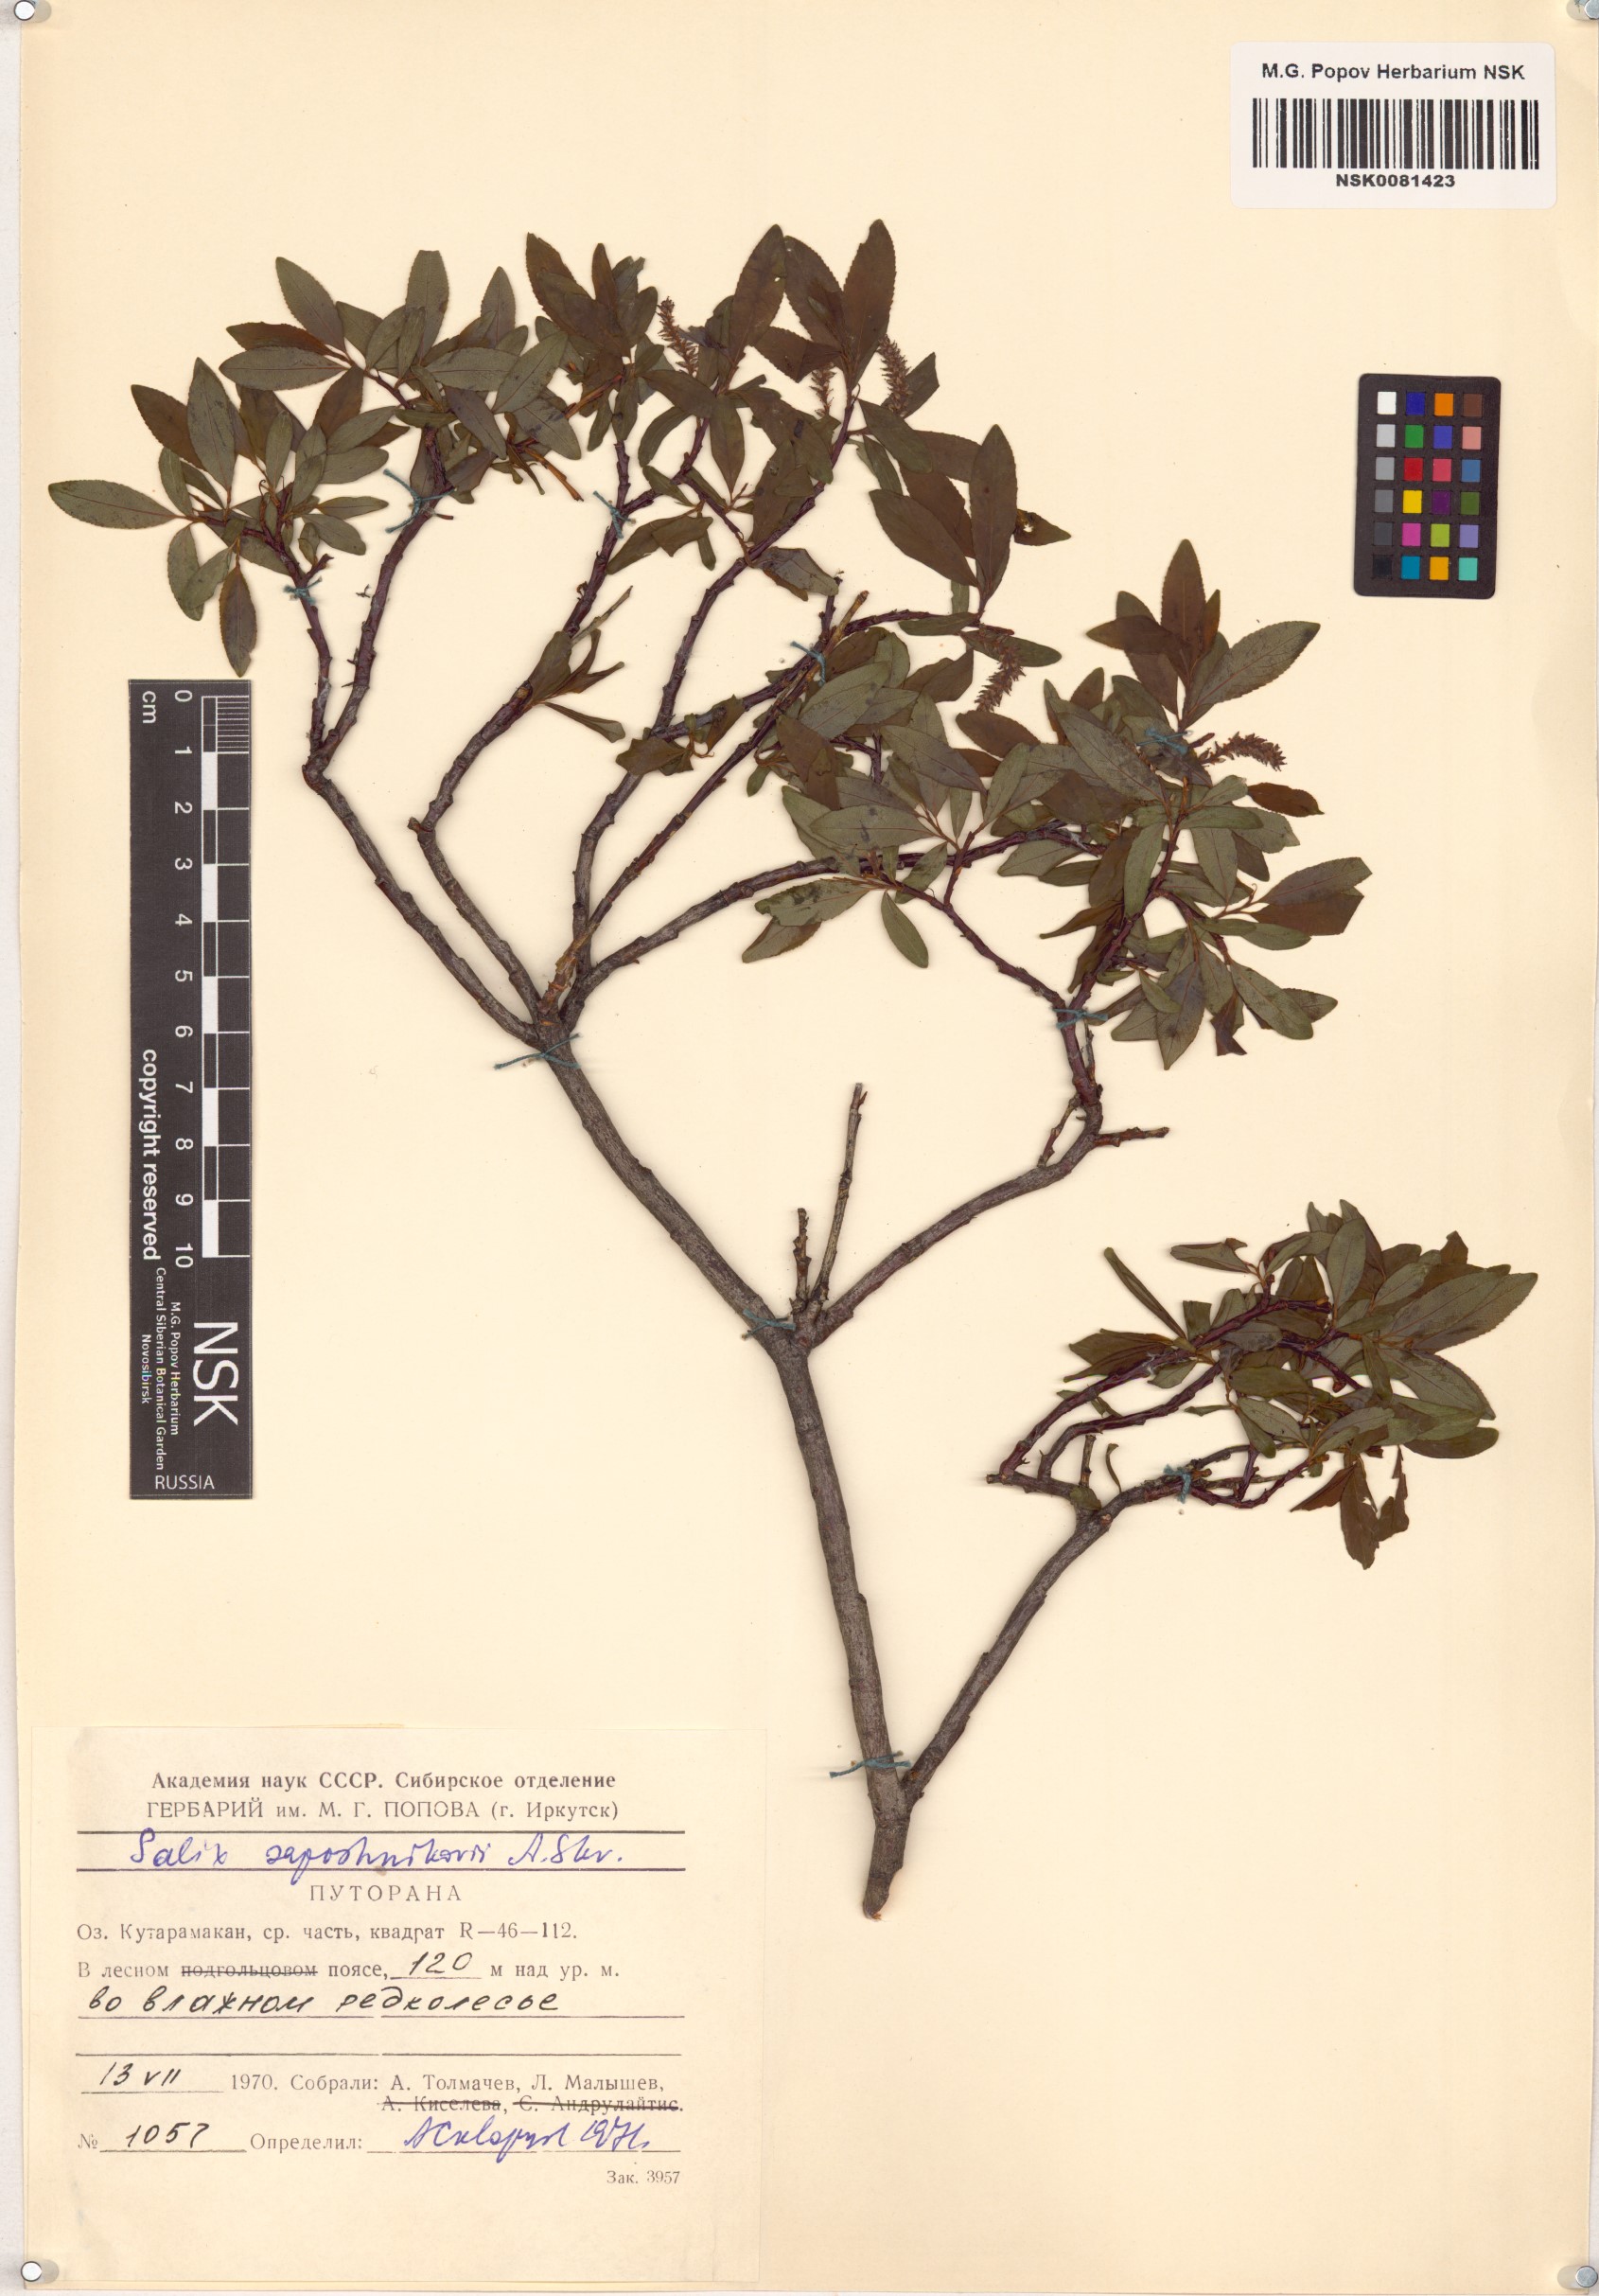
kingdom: Plantae
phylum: Tracheophyta
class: Magnoliopsida
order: Malpighiales
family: Salicaceae
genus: Salix
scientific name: Salix saposhnikovii
